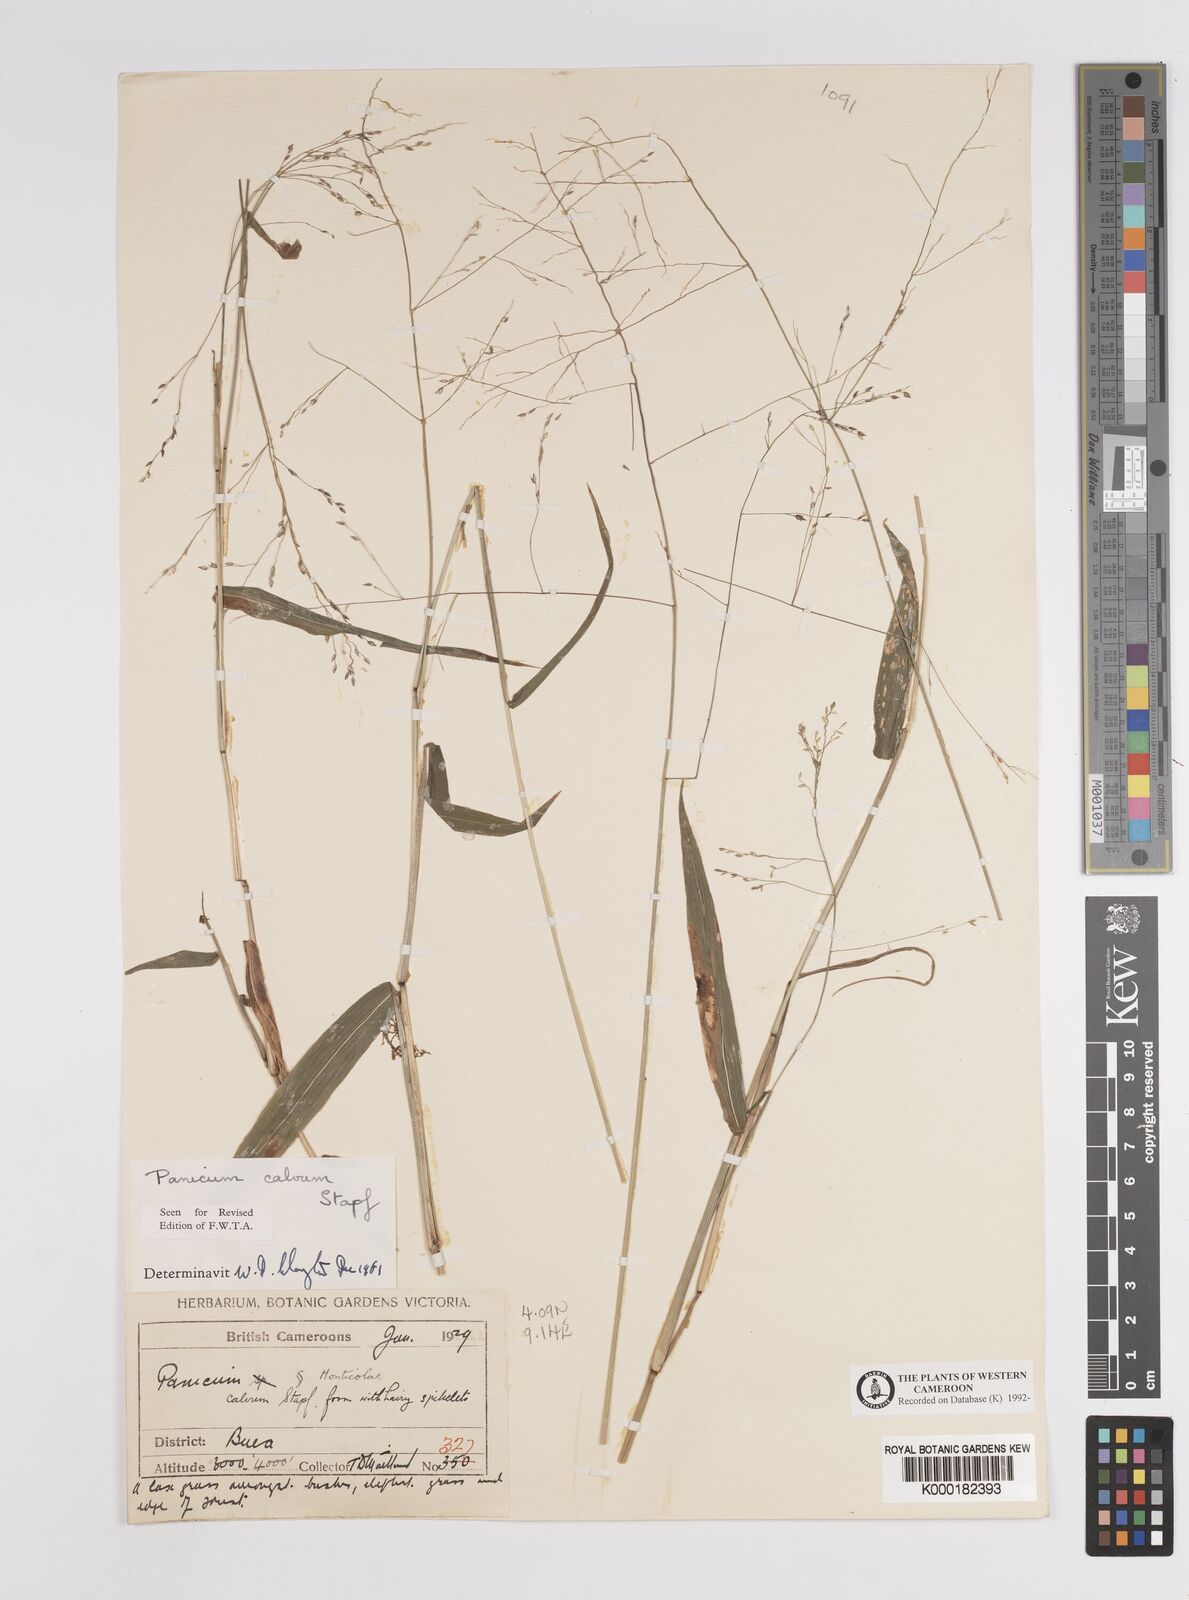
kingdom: Plantae
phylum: Tracheophyta
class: Liliopsida
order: Poales
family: Poaceae
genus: Panicum
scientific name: Panicum calvum
